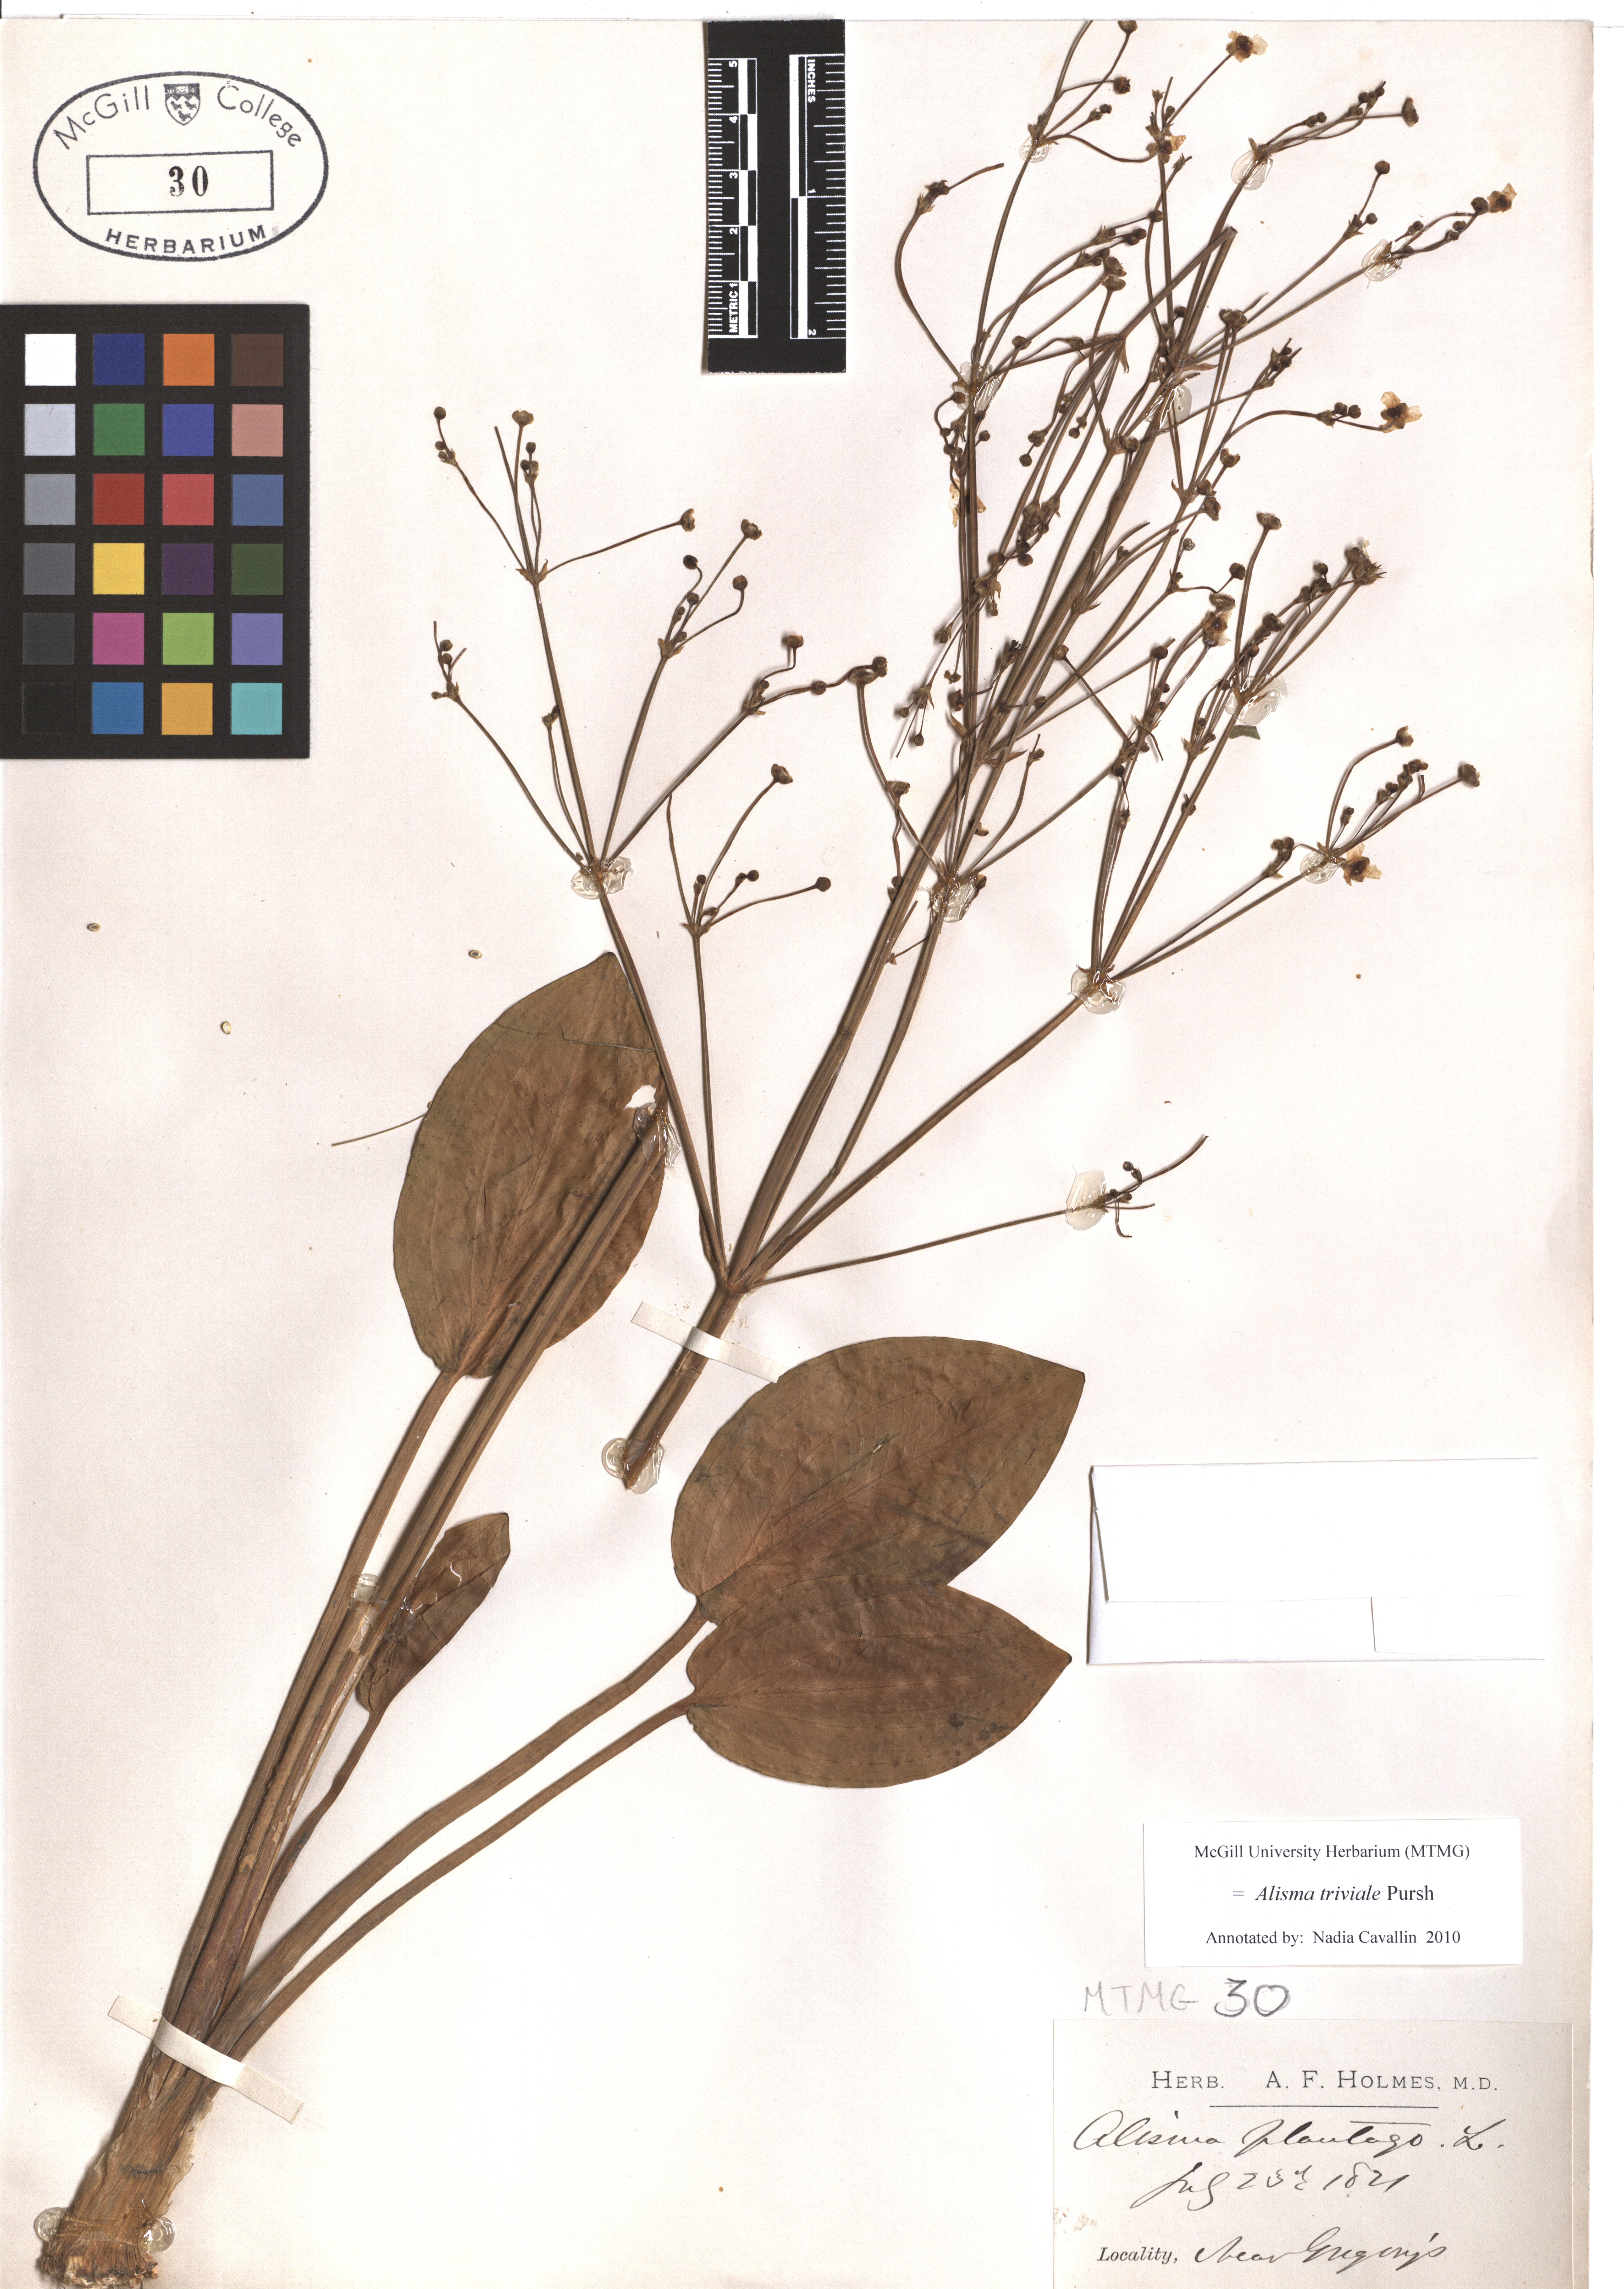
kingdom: Plantae
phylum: Tracheophyta
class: Liliopsida
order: Alismatales
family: Alismataceae
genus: Alisma
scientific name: Alisma triviale
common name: Northern water-plantain
